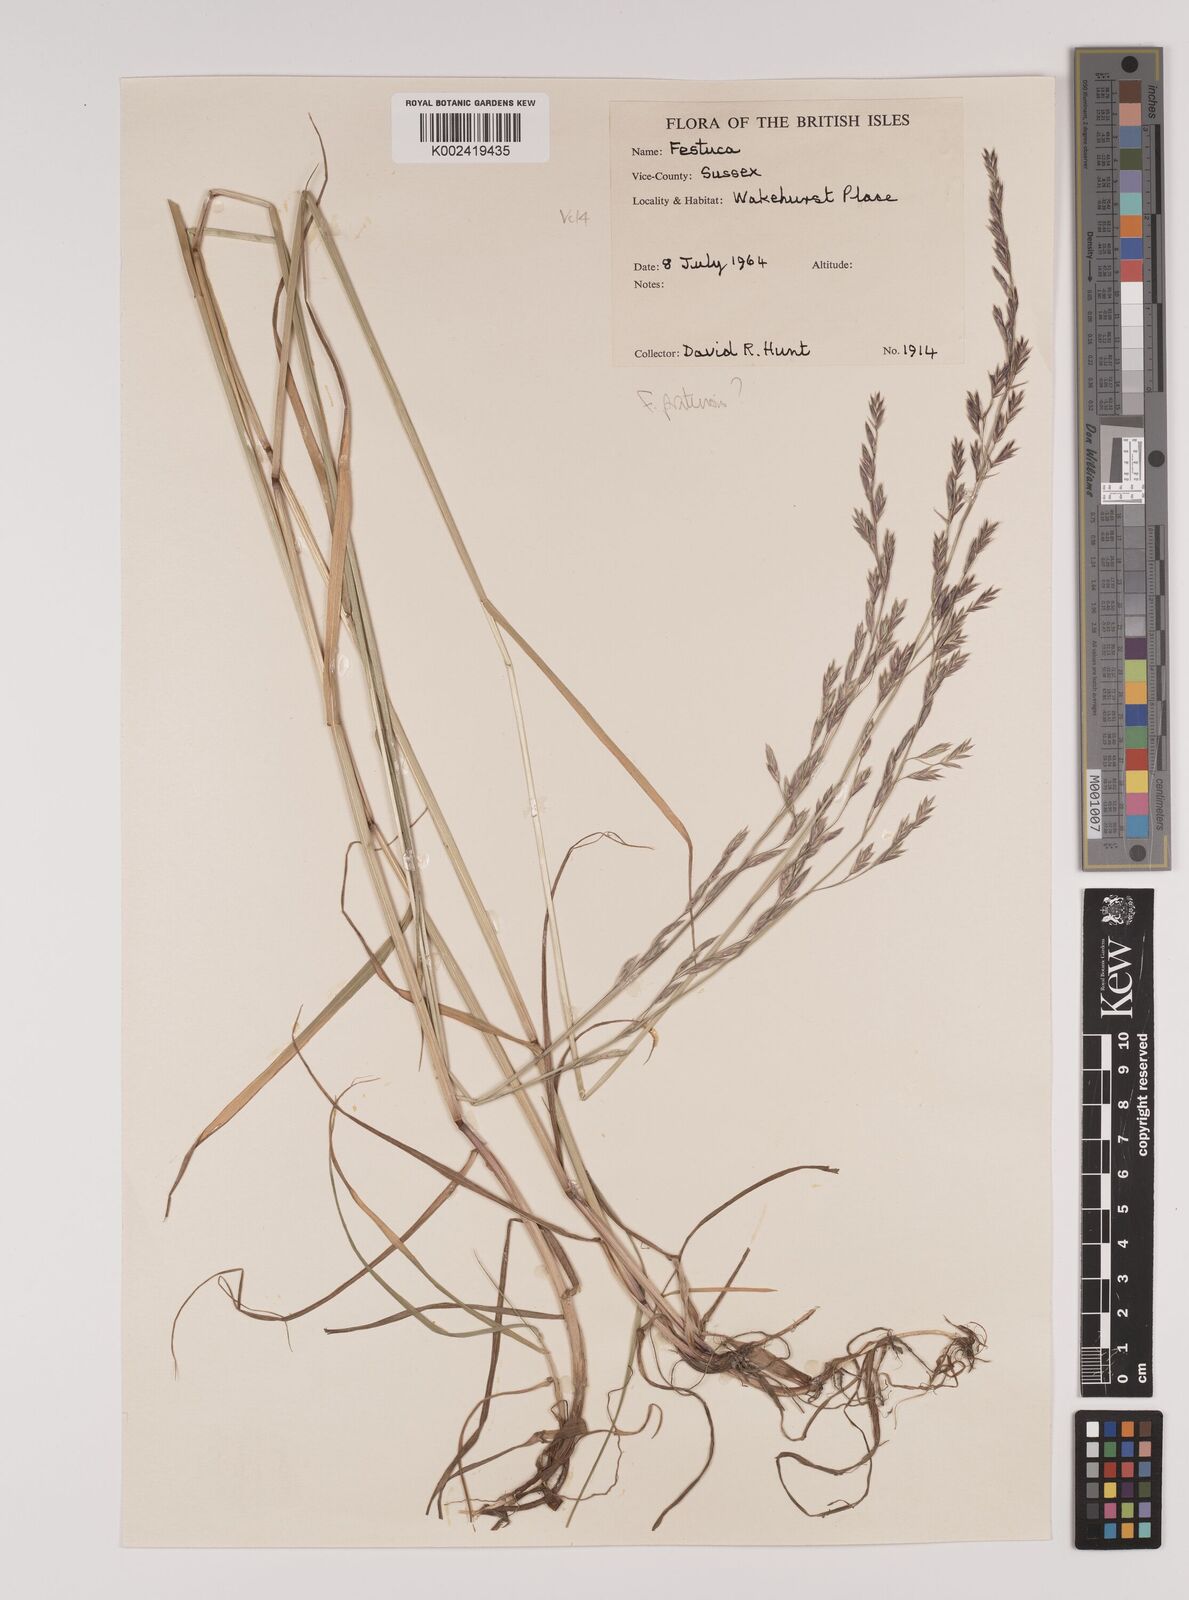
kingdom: Plantae
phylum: Tracheophyta
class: Liliopsida
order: Poales
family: Poaceae
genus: Lolium
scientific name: Lolium pratense
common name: Dover grass
